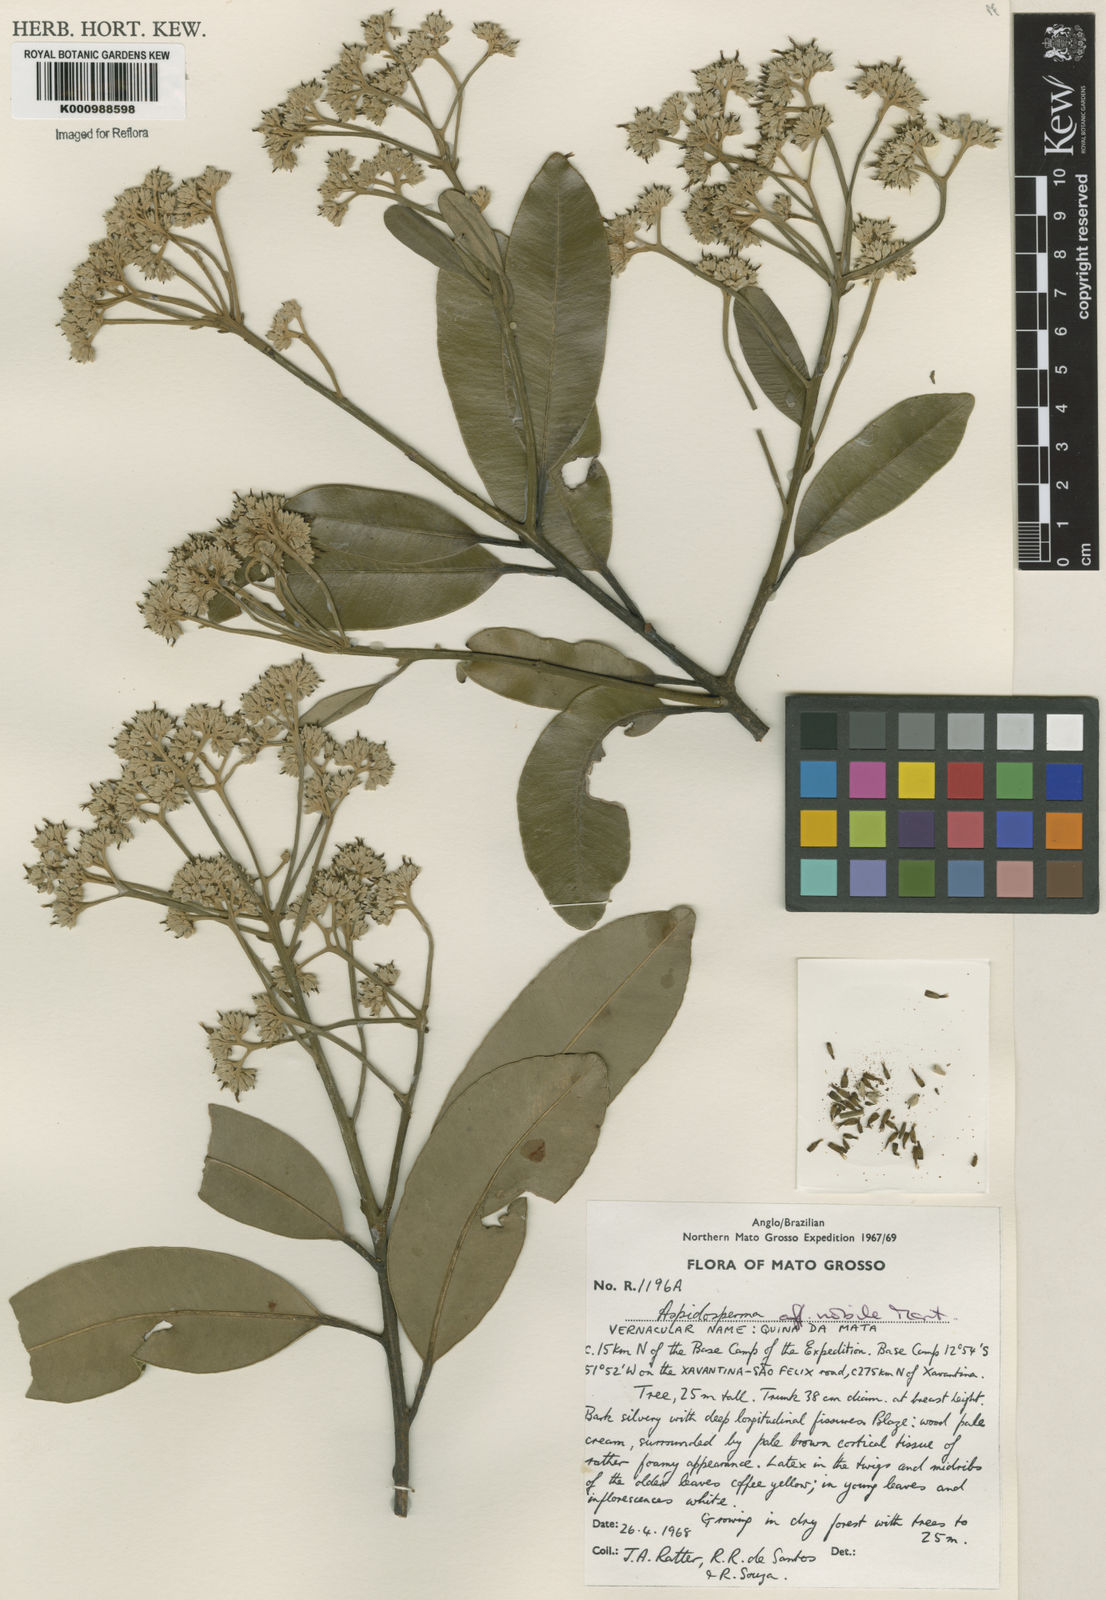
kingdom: Plantae
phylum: Tracheophyta
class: Magnoliopsida
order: Gentianales
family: Apocynaceae
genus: Aspidosperma
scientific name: Aspidosperma
